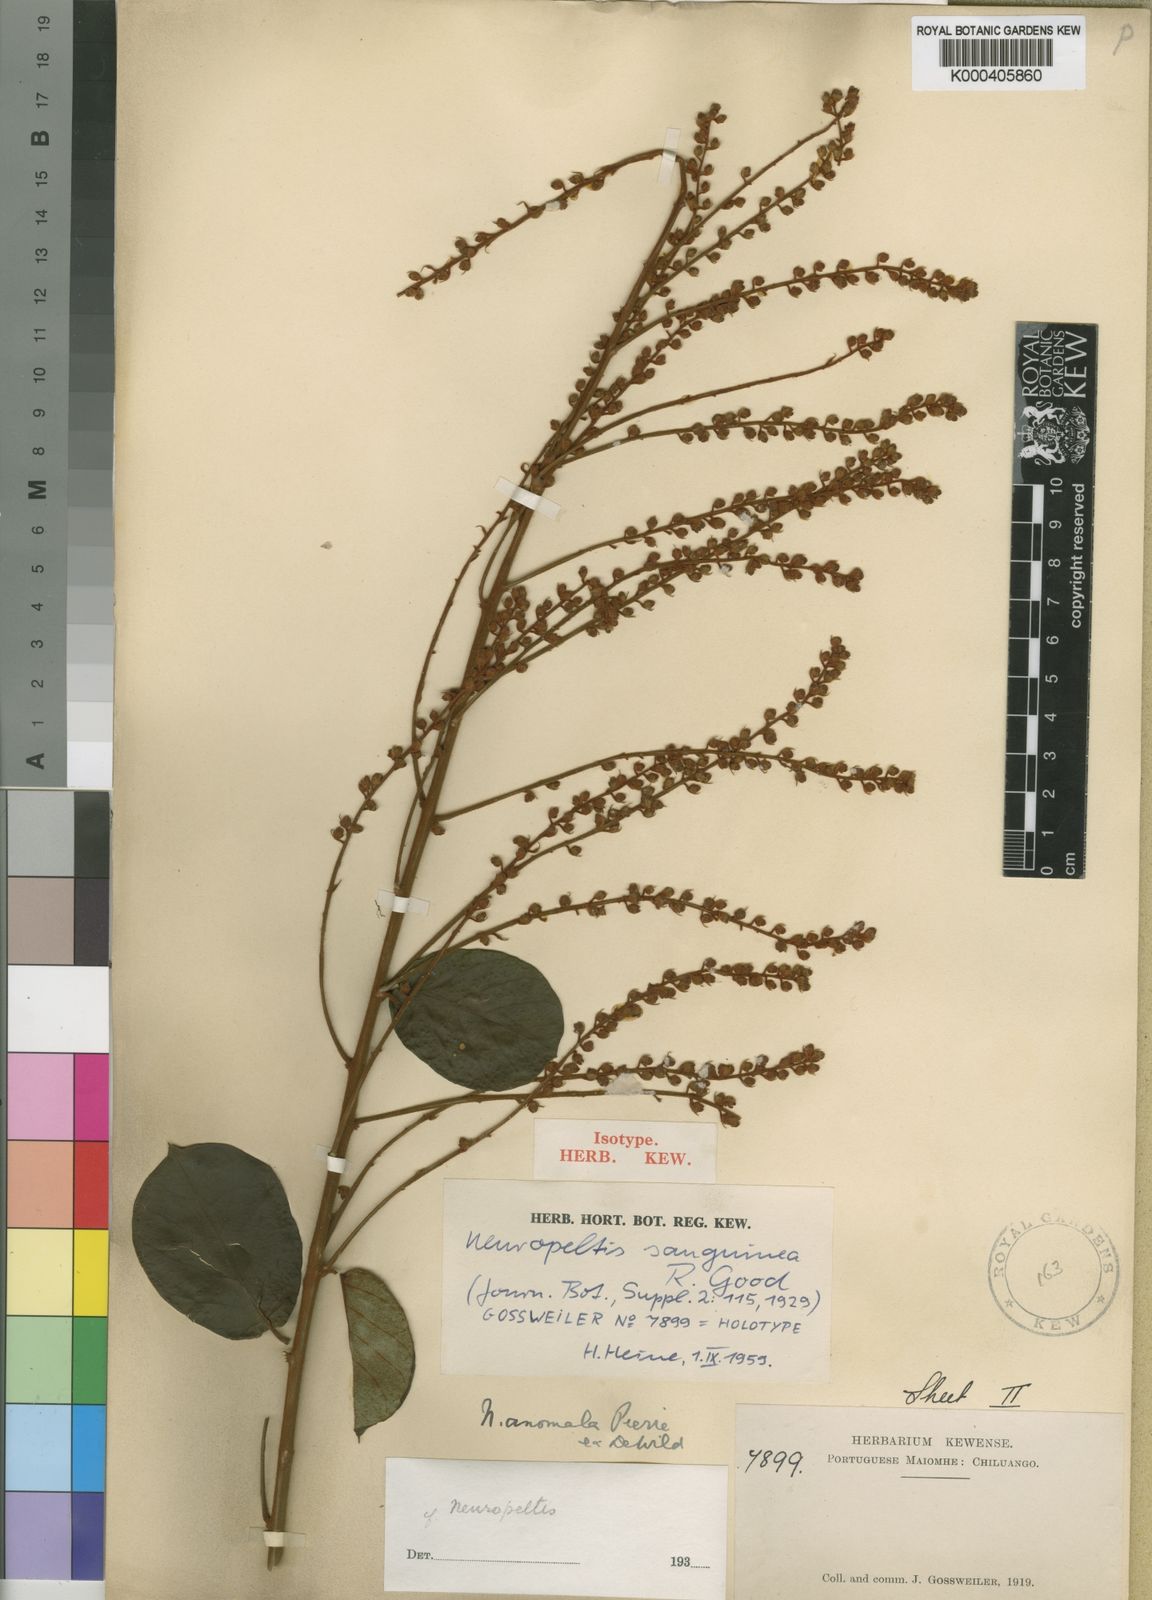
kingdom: Plantae
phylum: Tracheophyta
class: Magnoliopsida
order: Solanales
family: Convolvulaceae
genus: Neuropeltis
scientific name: Neuropeltis velutina
